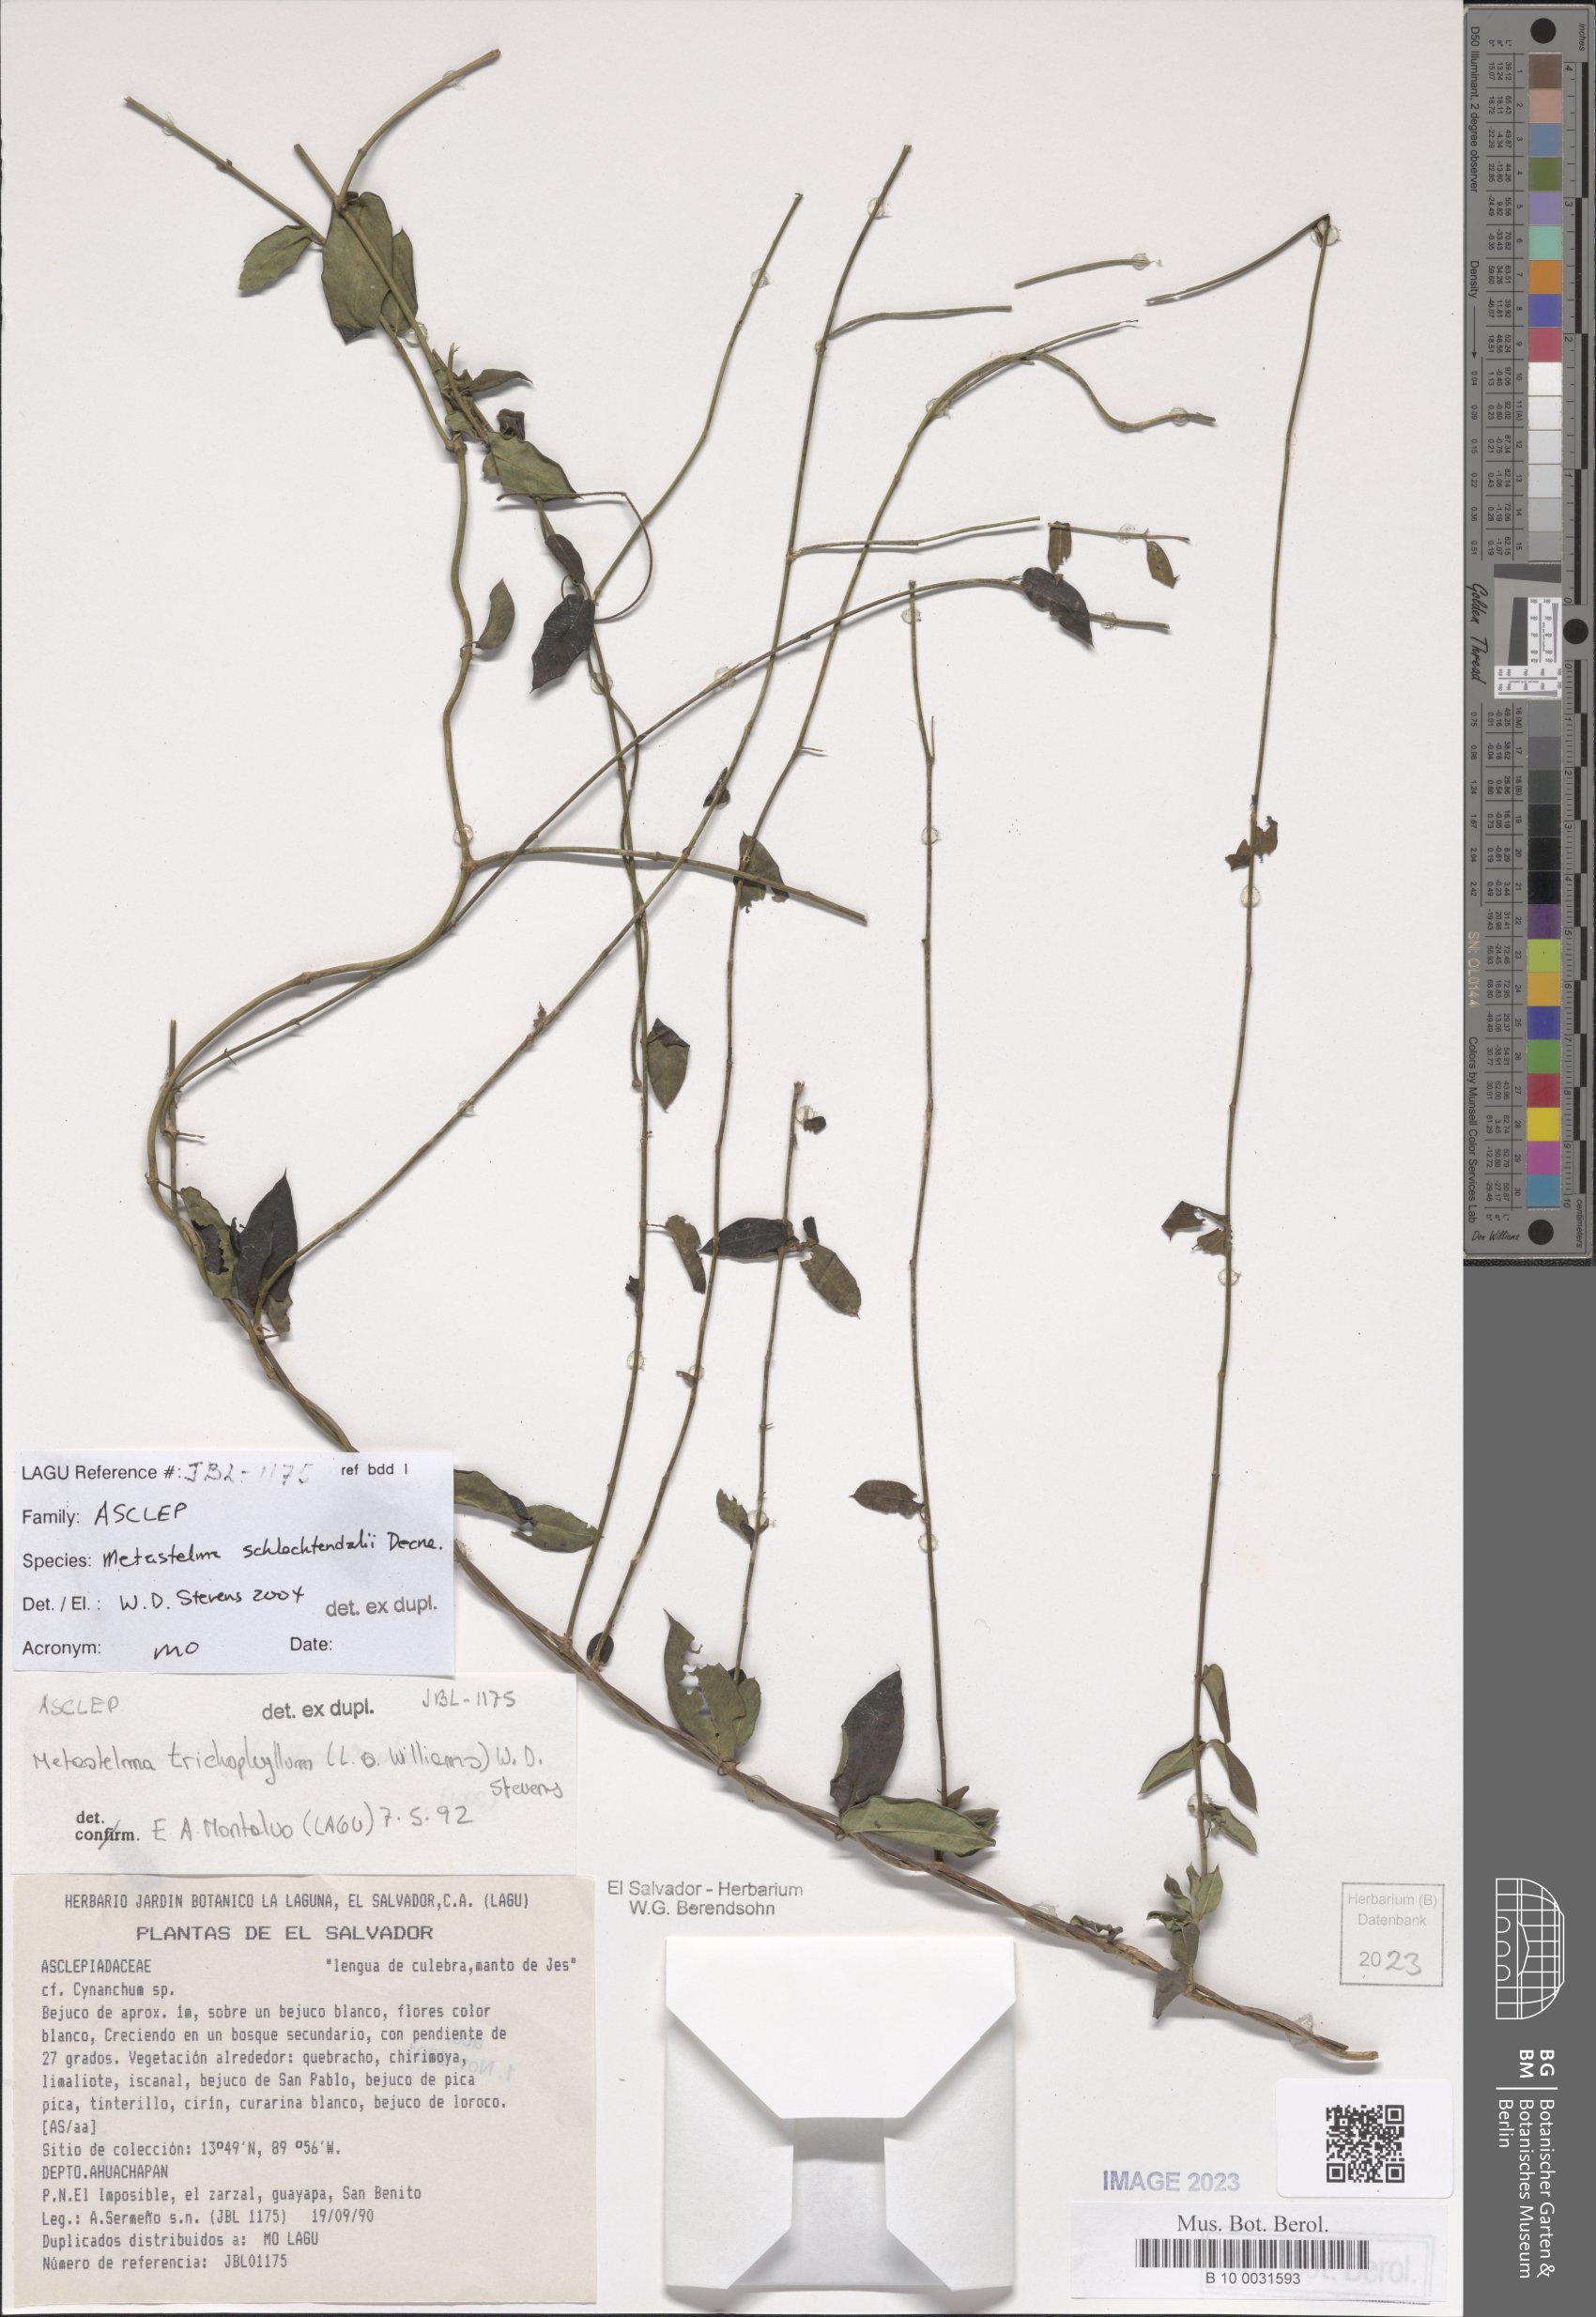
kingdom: Plantae
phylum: Tracheophyta
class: Magnoliopsida
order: Gentianales
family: Apocynaceae
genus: Metastelma
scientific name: Metastelma schlechtendalii
